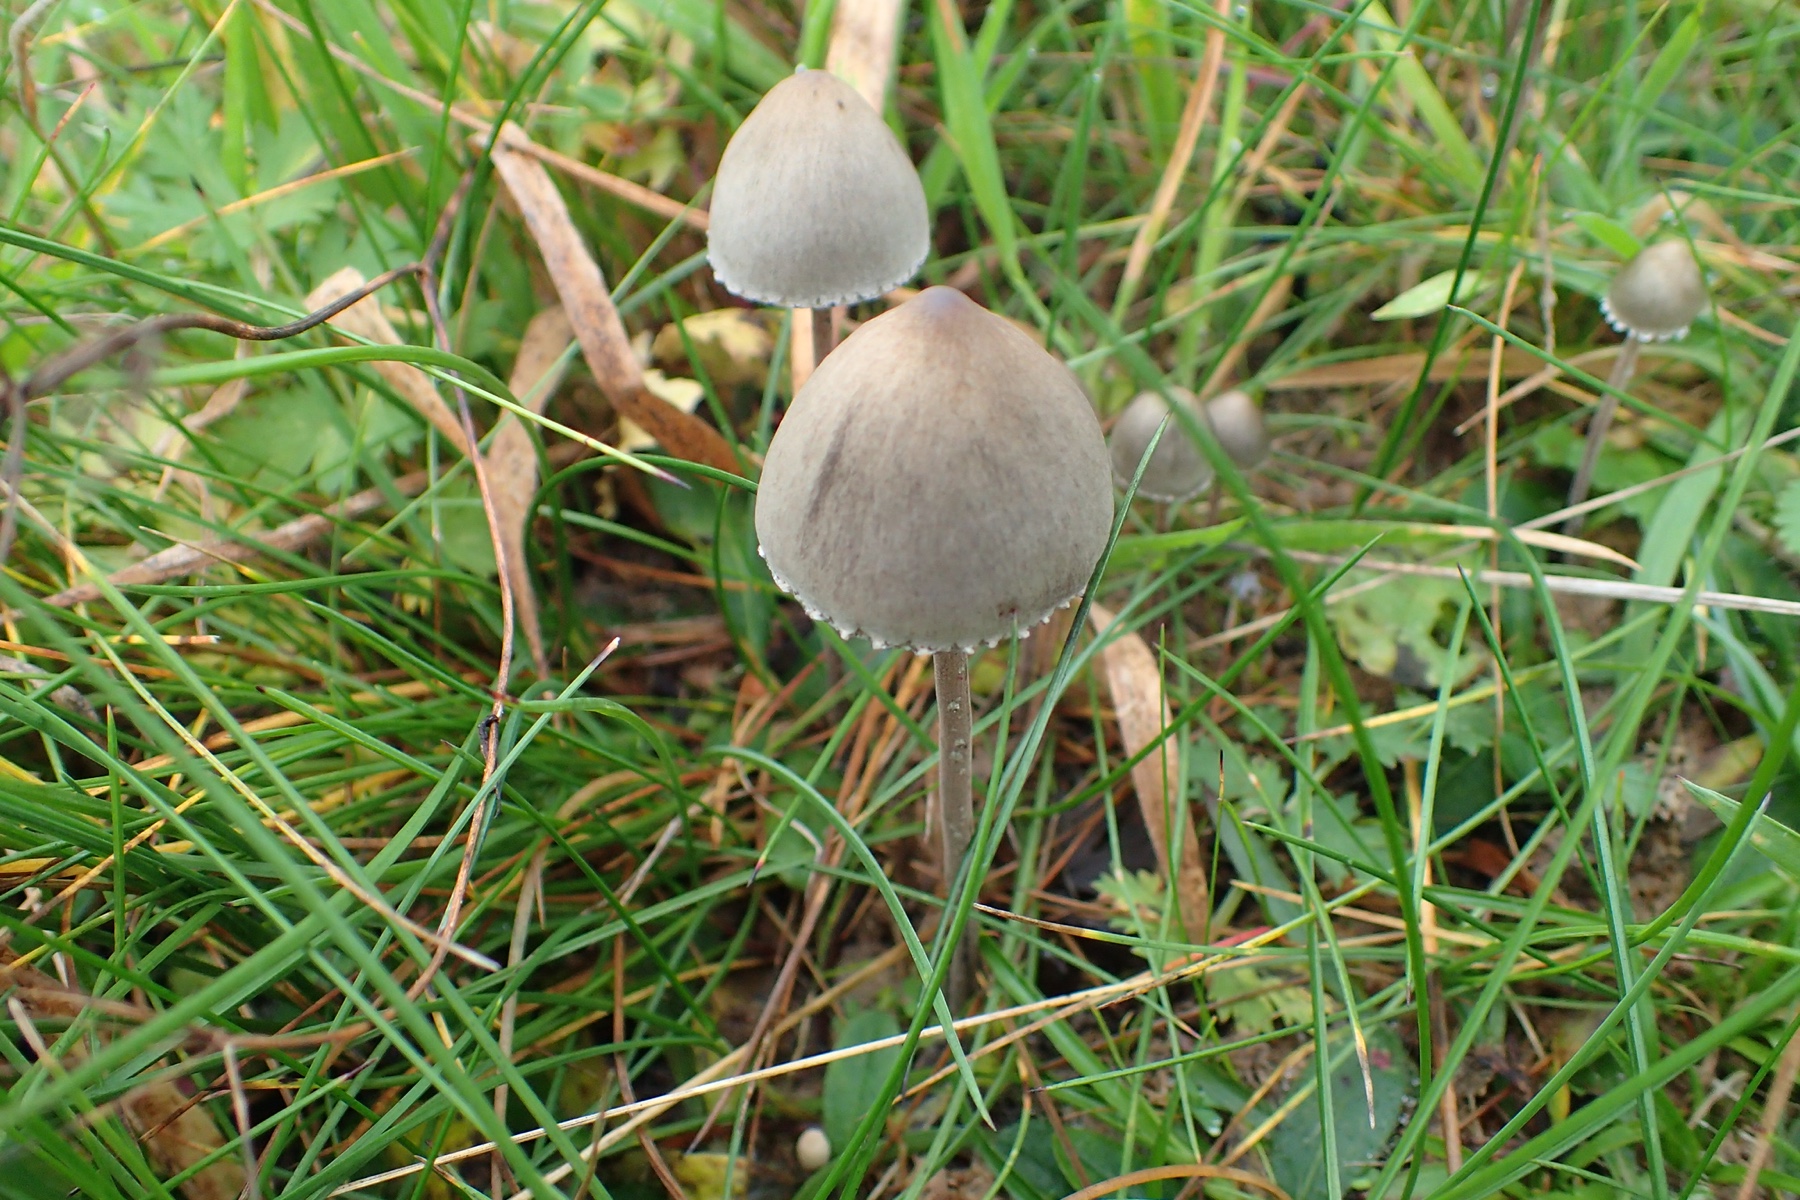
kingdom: Fungi
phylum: Basidiomycota
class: Agaricomycetes
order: Agaricales
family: Bolbitiaceae
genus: Panaeolus
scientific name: Panaeolus papilionaceus
